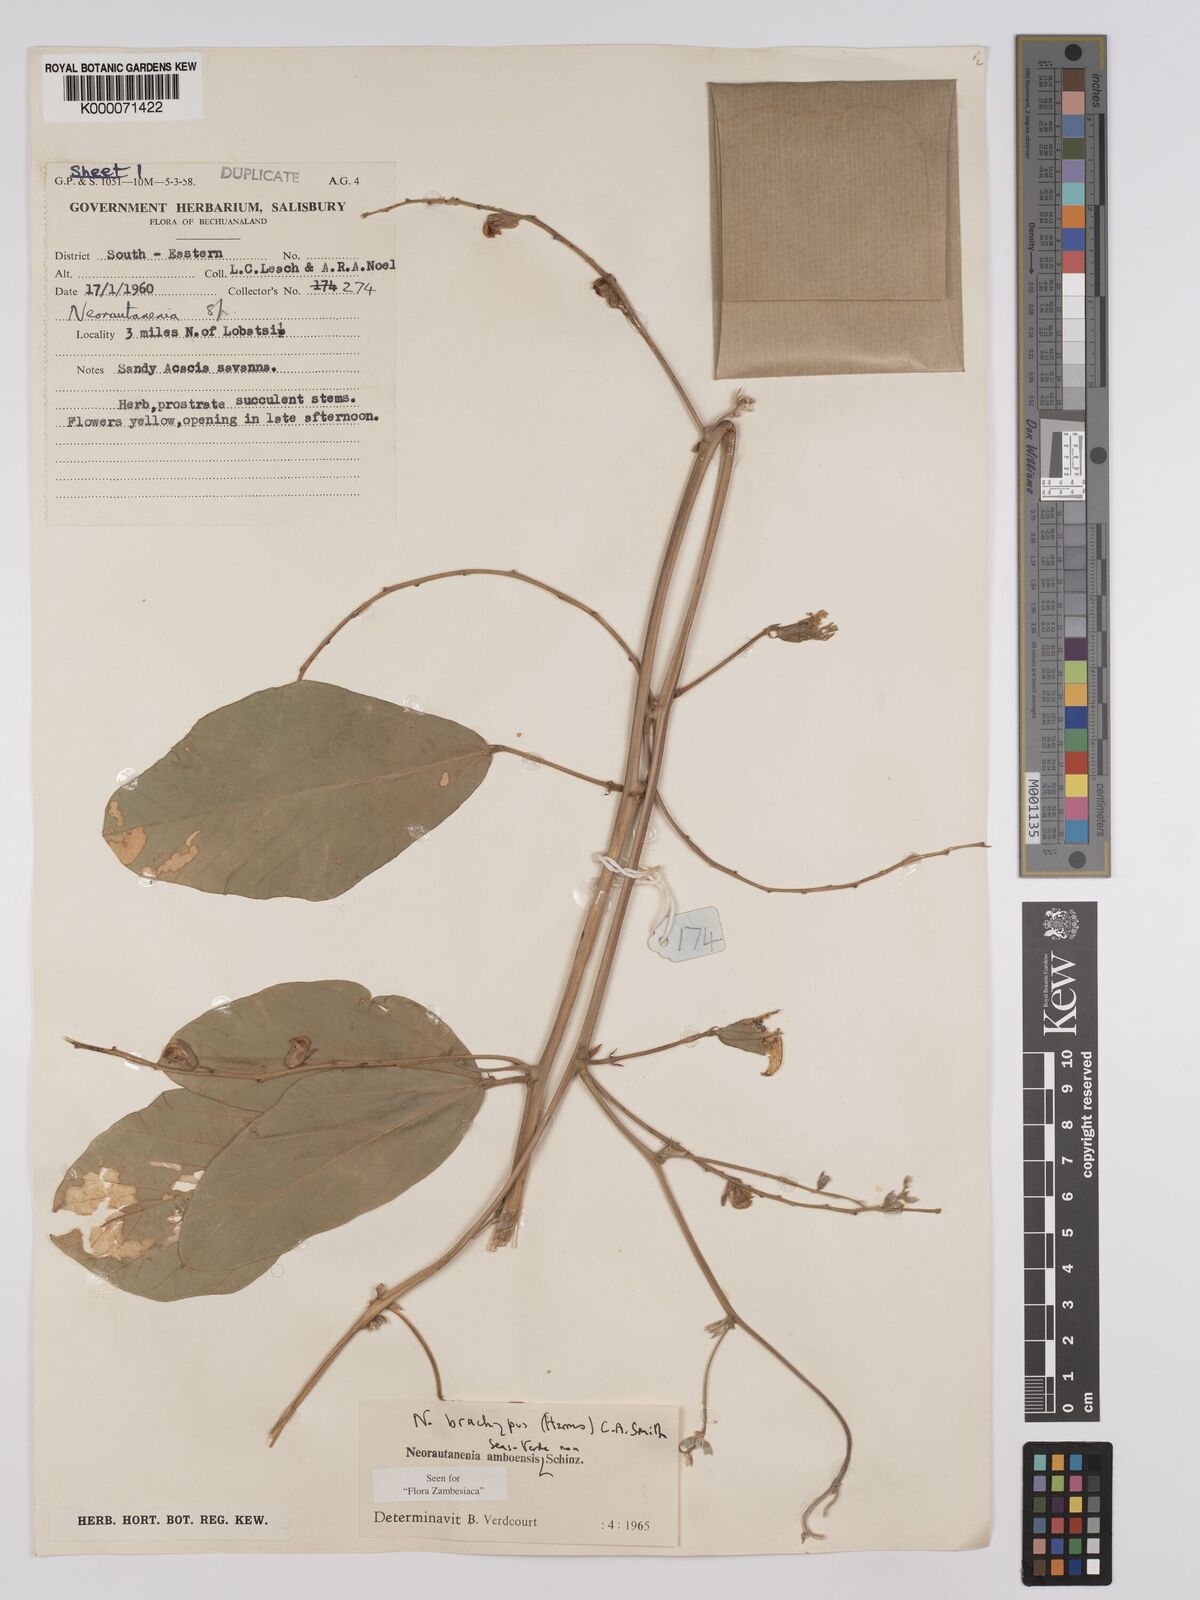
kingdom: Plantae
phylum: Tracheophyta
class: Magnoliopsida
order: Fabales
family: Fabaceae
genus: Neorautanenia
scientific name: Neorautanenia
